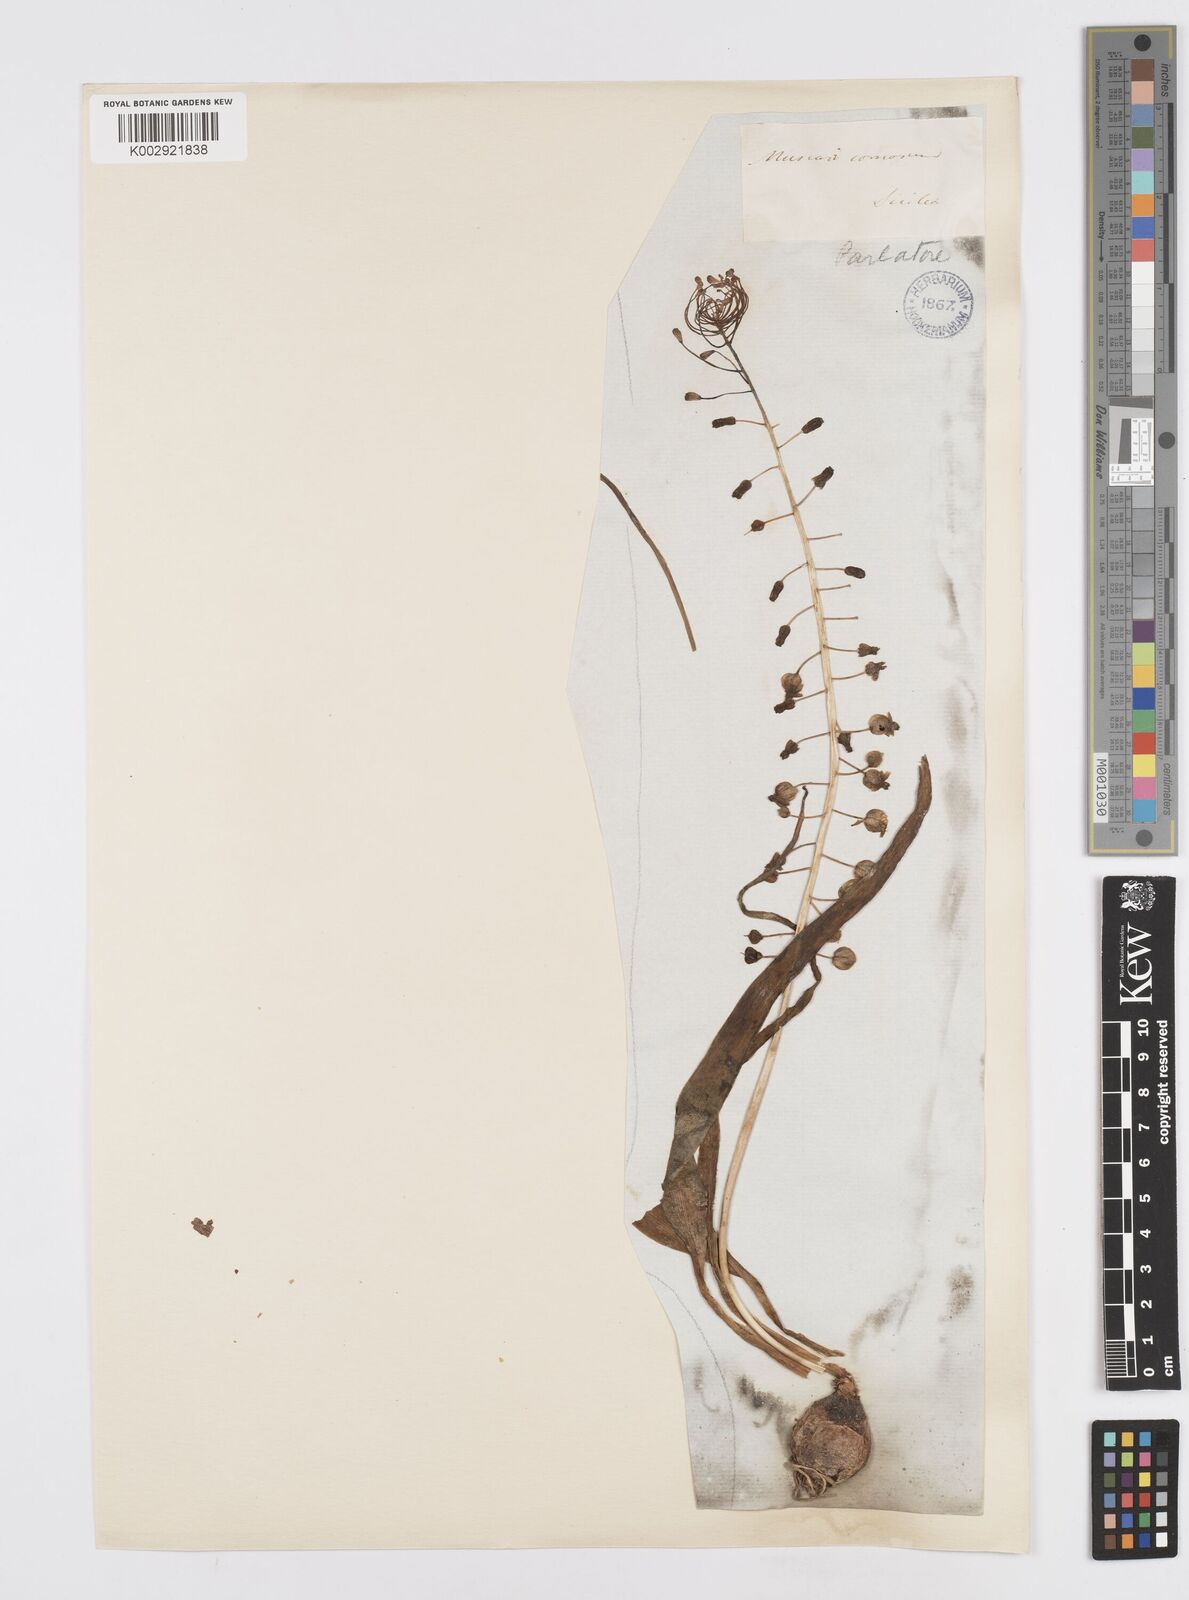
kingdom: Plantae
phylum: Tracheophyta
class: Liliopsida
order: Asparagales
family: Asparagaceae
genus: Muscari
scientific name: Muscari comosum
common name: Tassel hyacinth
